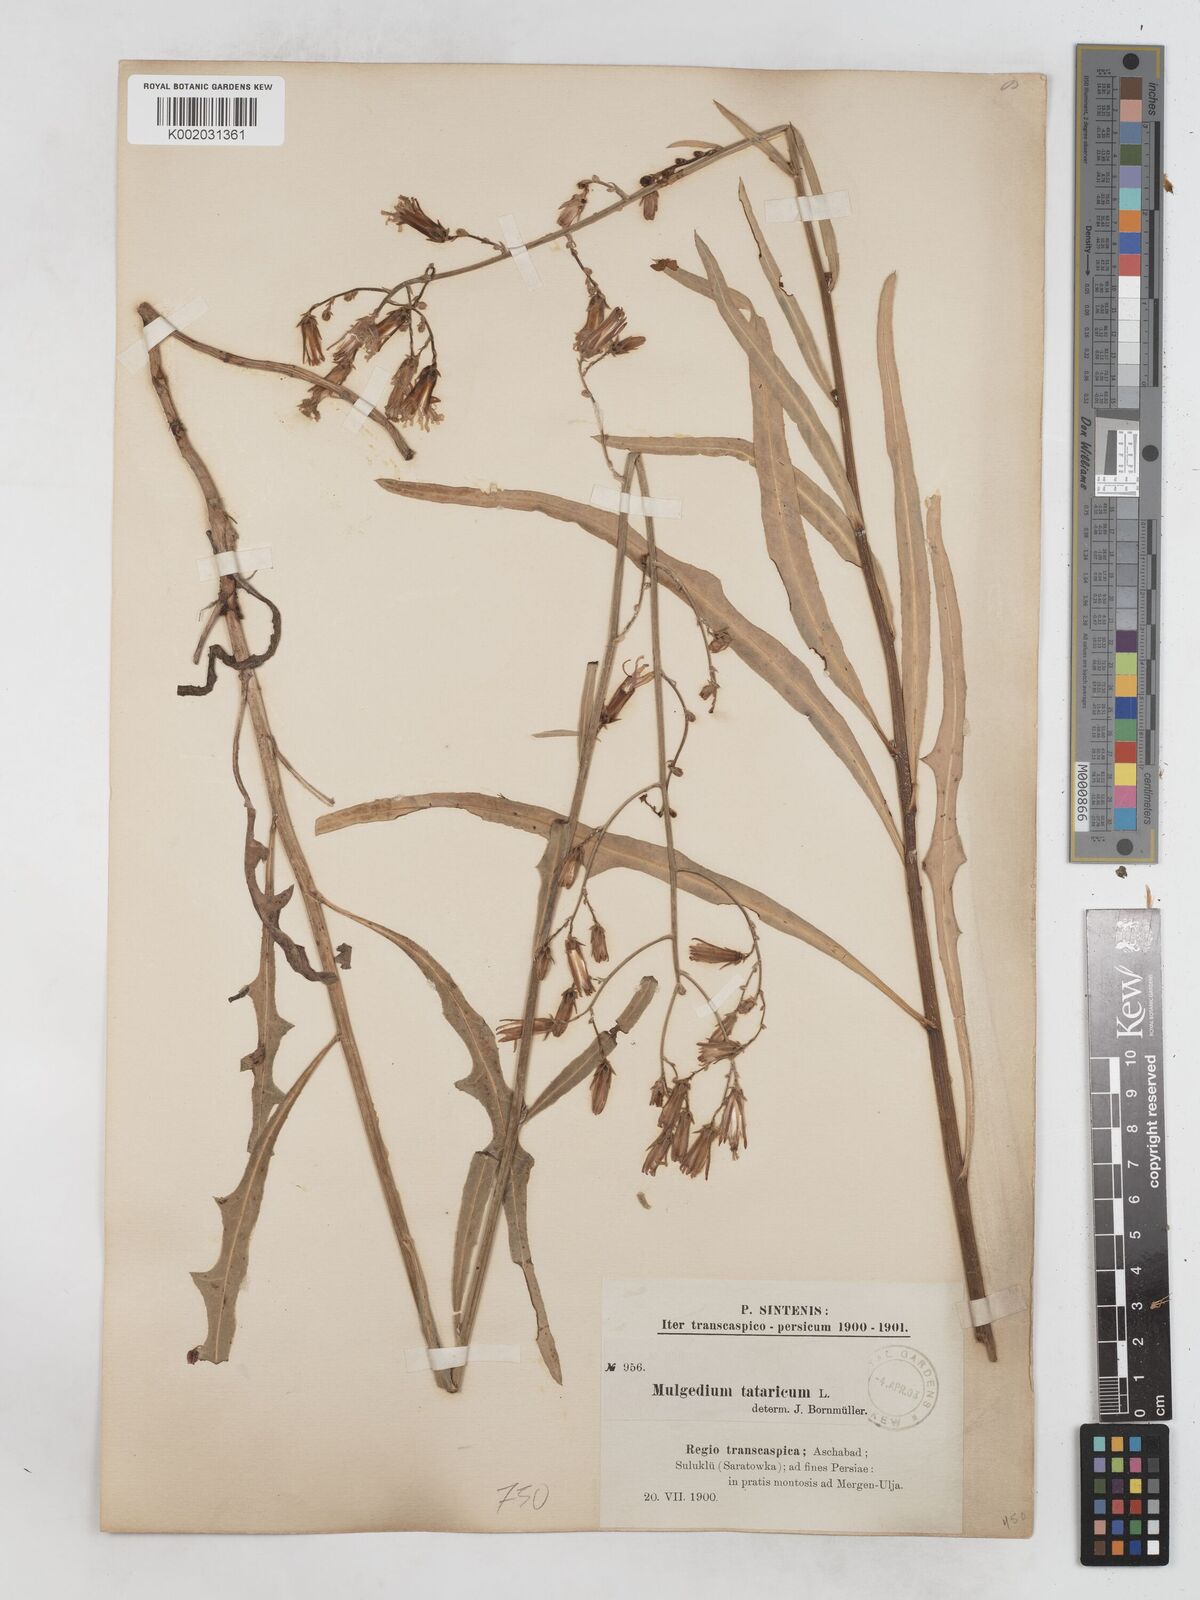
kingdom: Plantae
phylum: Tracheophyta
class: Magnoliopsida
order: Asterales
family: Asteraceae
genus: Lactuca
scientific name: Lactuca tatarica
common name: Blue lettuce
